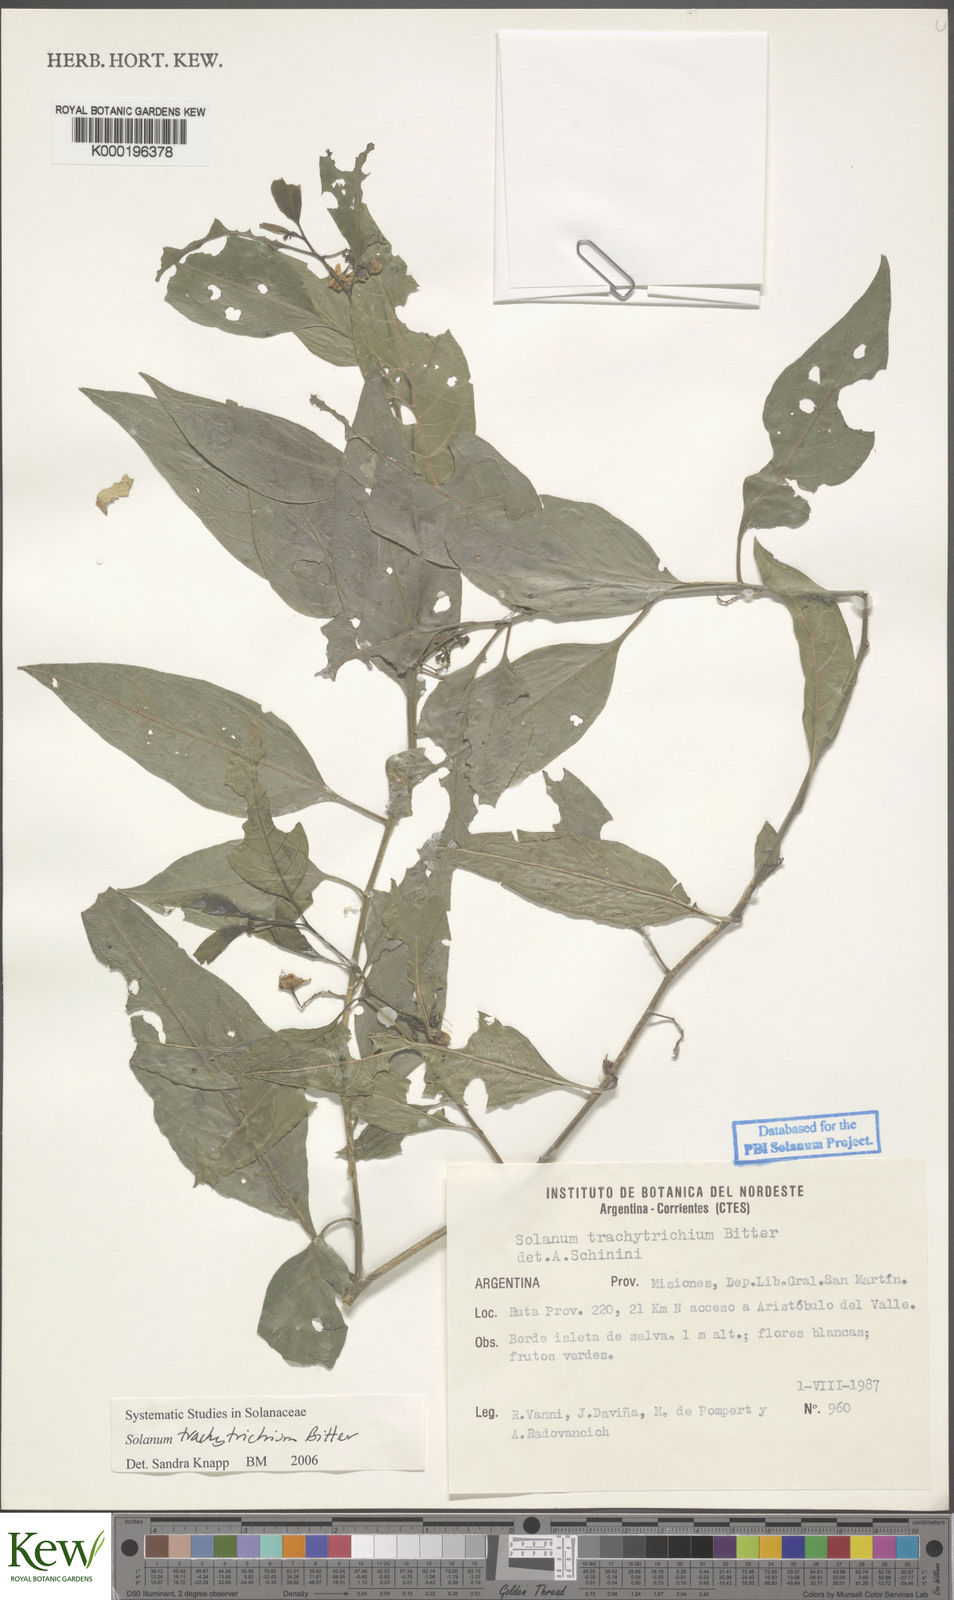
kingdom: Plantae
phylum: Tracheophyta
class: Magnoliopsida
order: Solanales
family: Solanaceae
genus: Solanum
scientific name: Solanum trachytrichium
